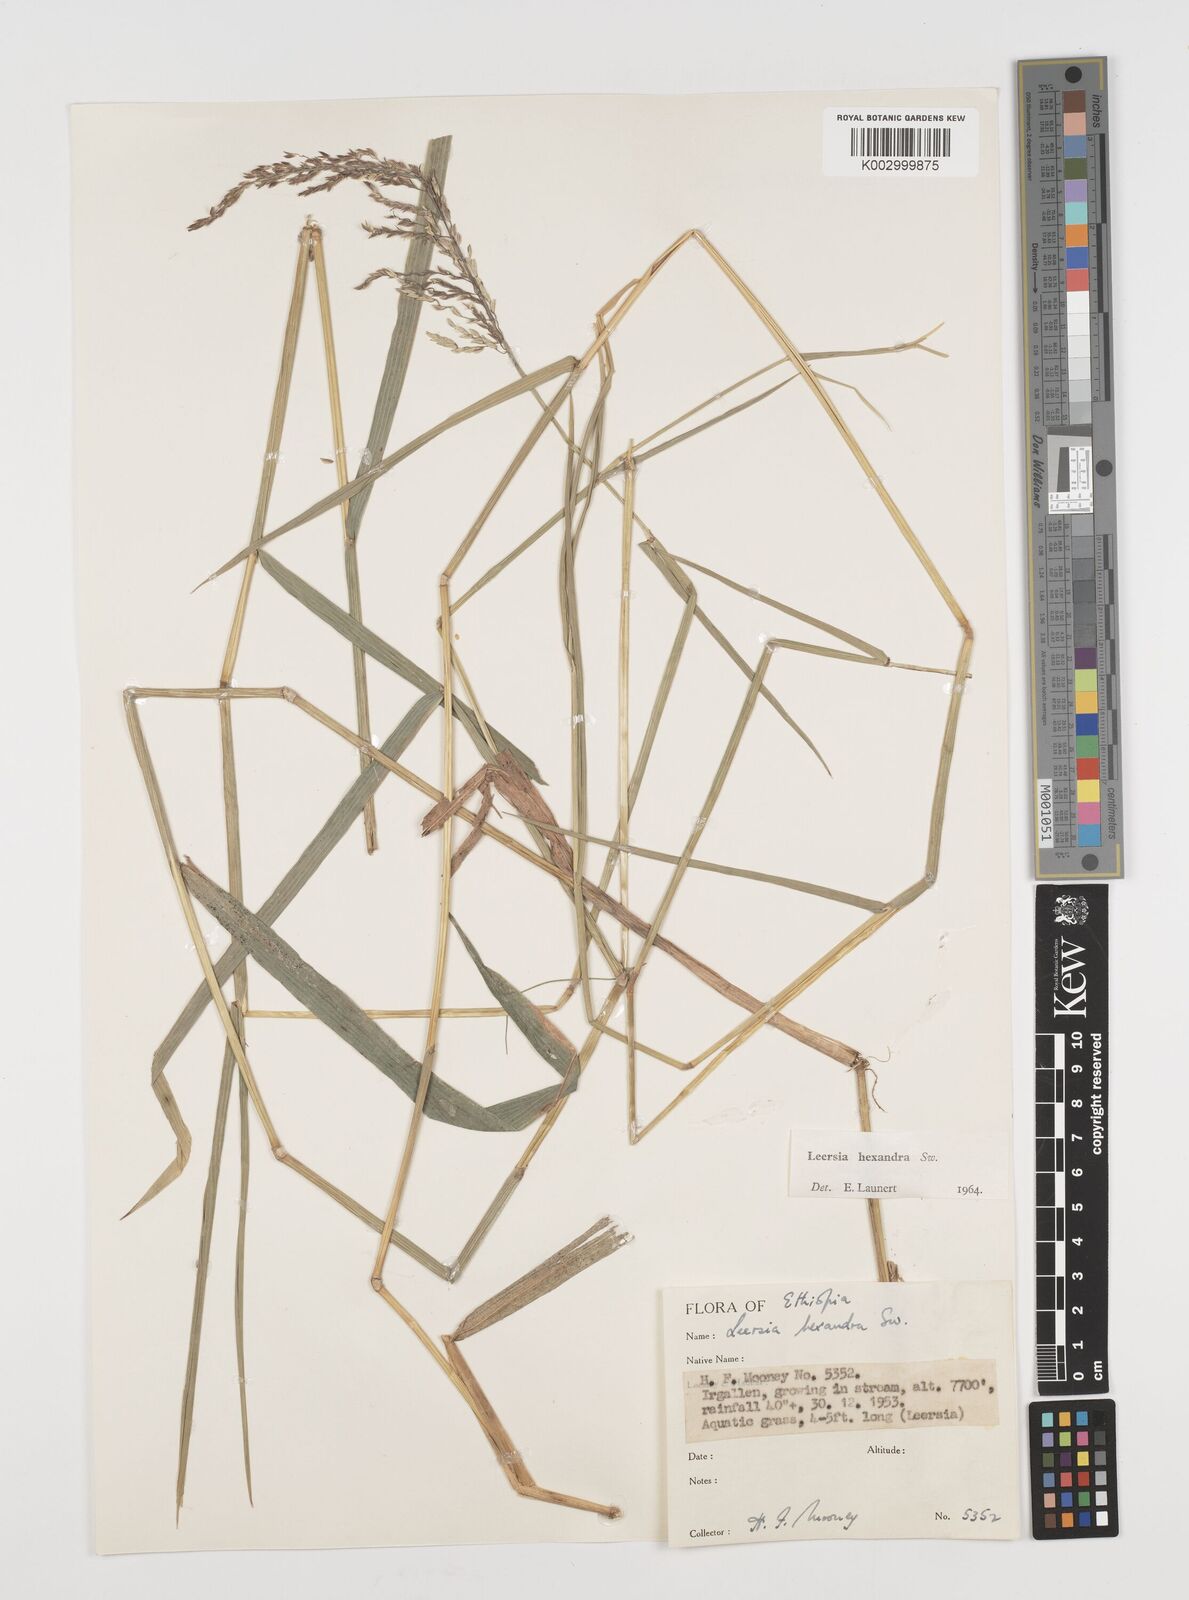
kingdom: Plantae
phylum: Tracheophyta
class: Liliopsida
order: Poales
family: Poaceae
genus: Leersia
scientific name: Leersia hexandra
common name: Southern cut grass
